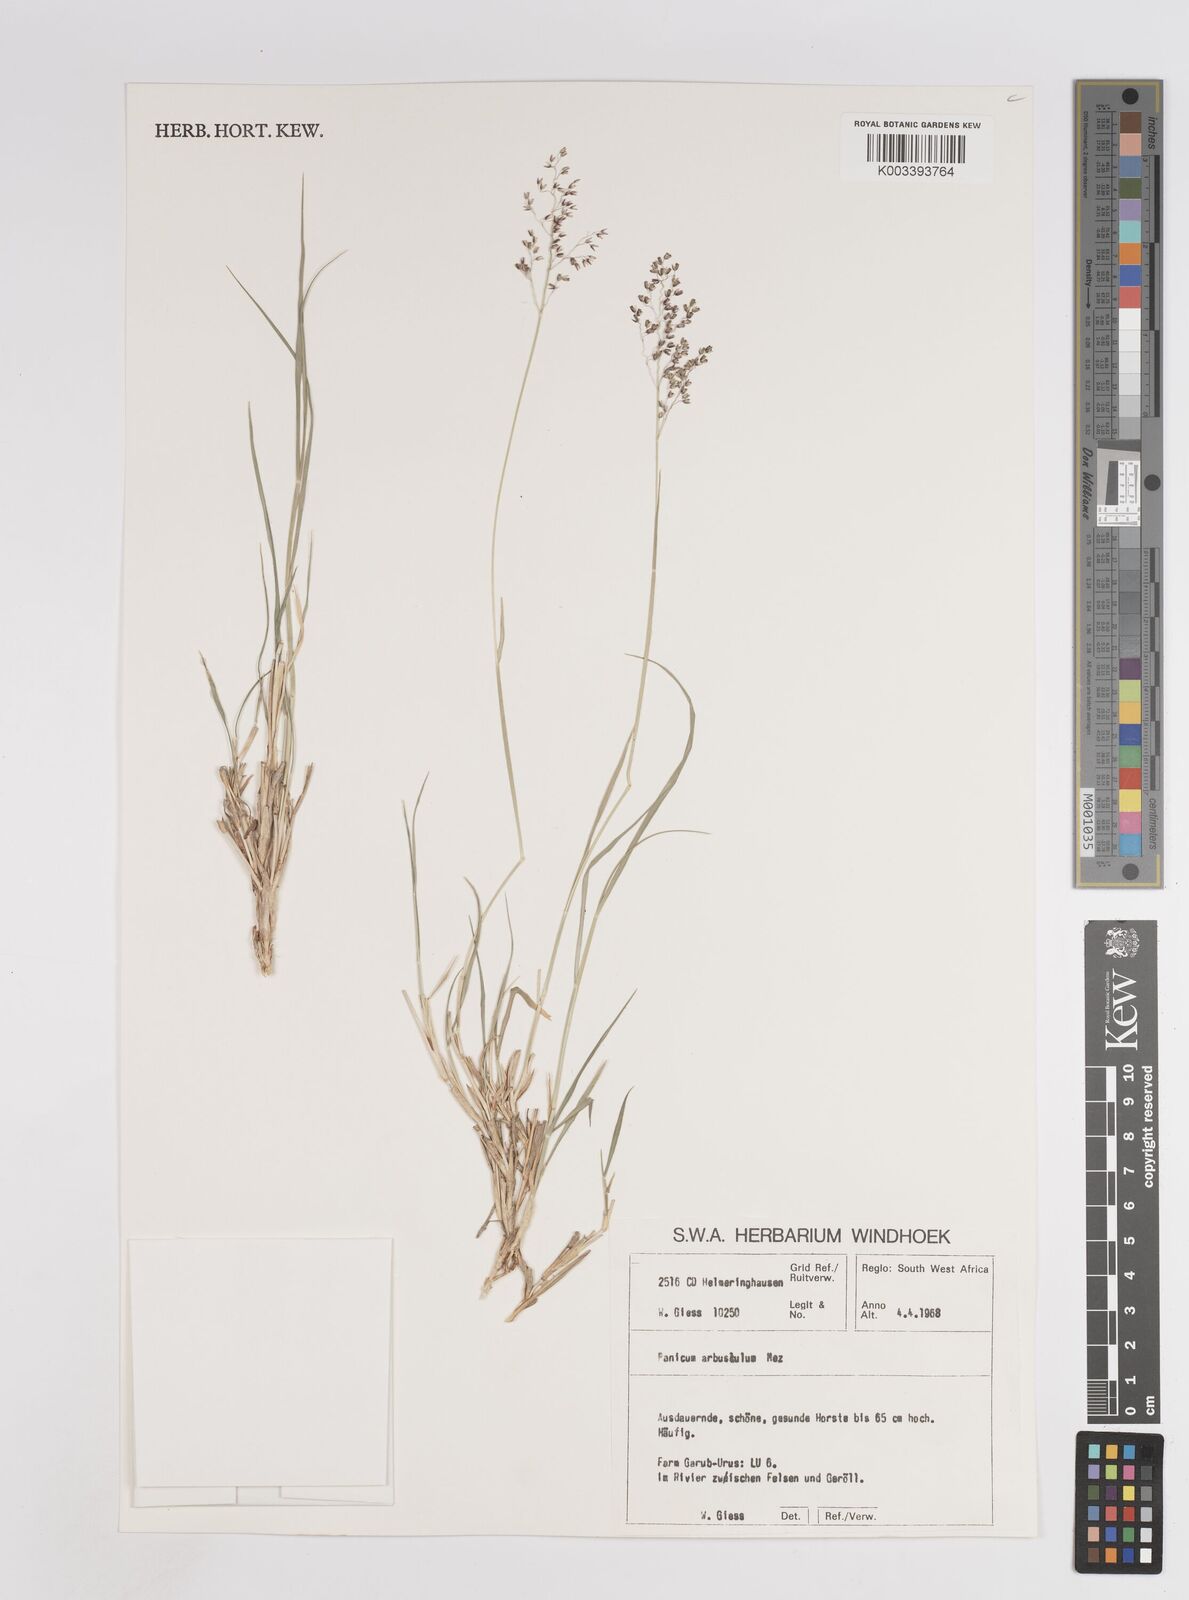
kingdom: Plantae
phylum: Tracheophyta
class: Liliopsida
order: Poales
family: Poaceae
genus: Panicum
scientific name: Panicum arbusculum
